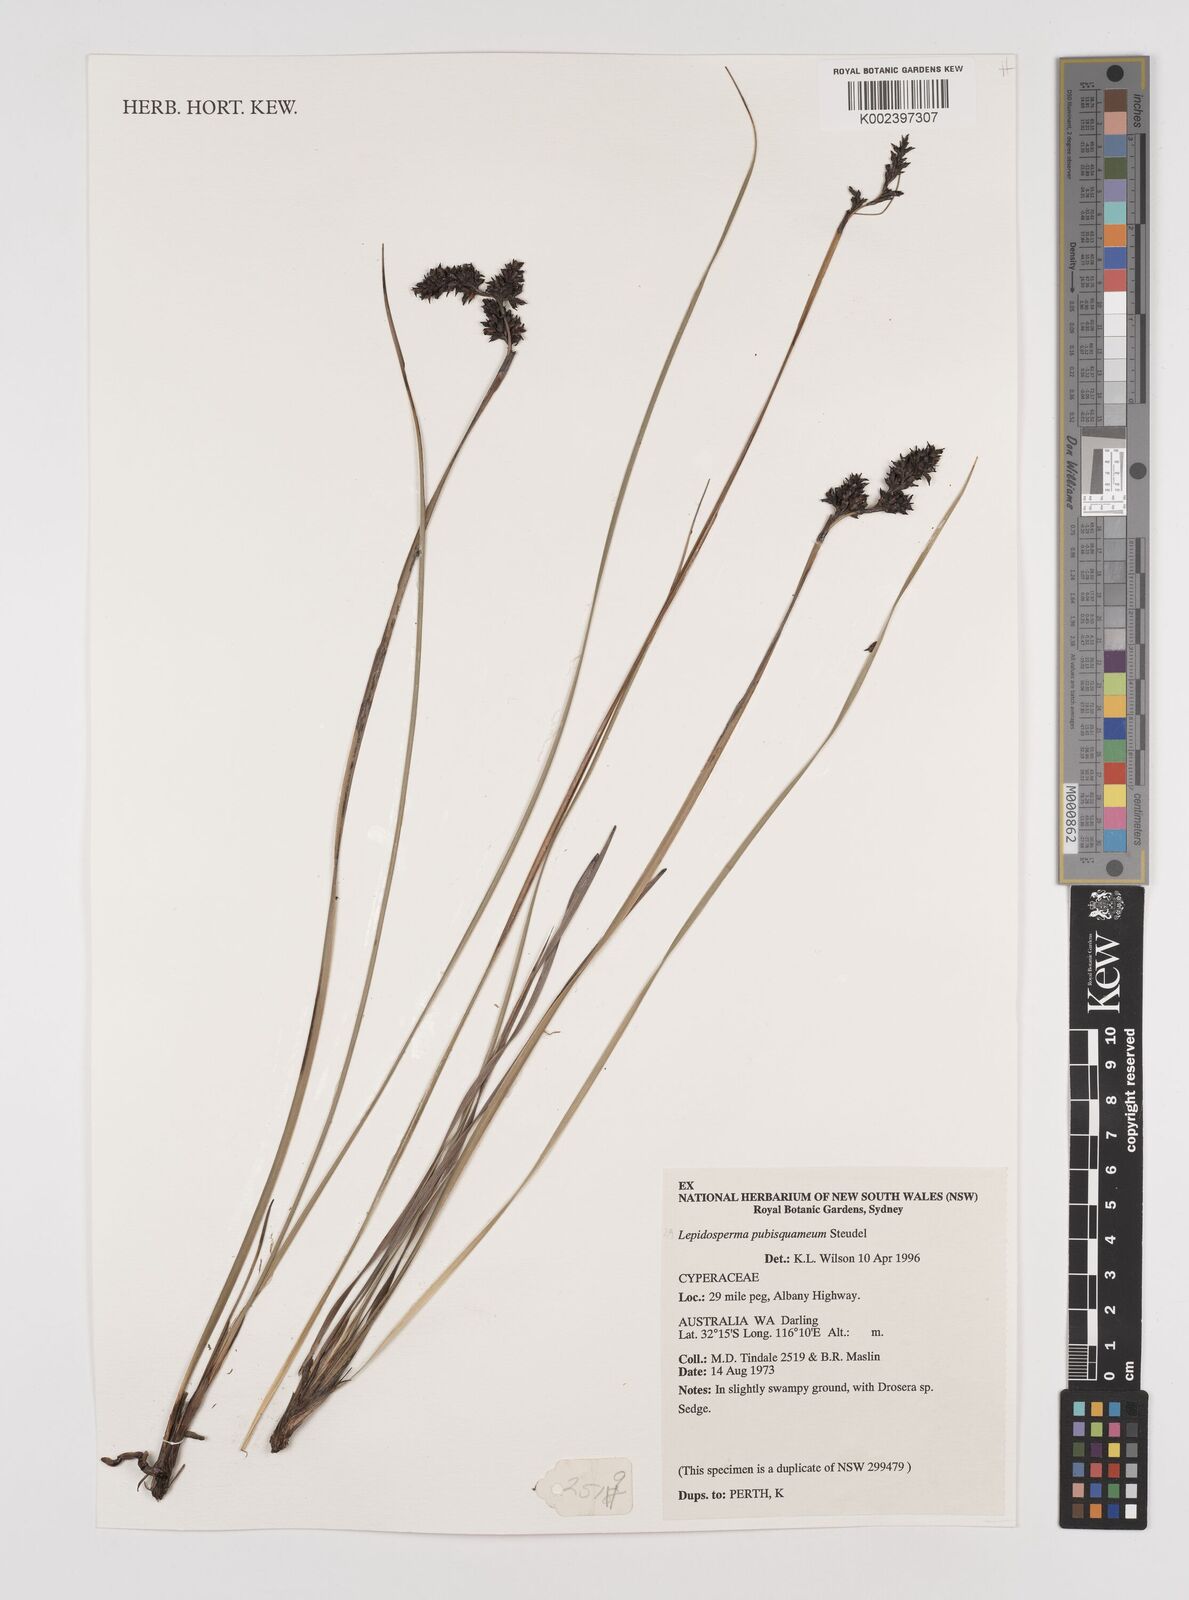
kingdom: Plantae
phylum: Tracheophyta
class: Liliopsida
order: Poales
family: Cyperaceae
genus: Lepidosperma
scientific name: Lepidosperma
